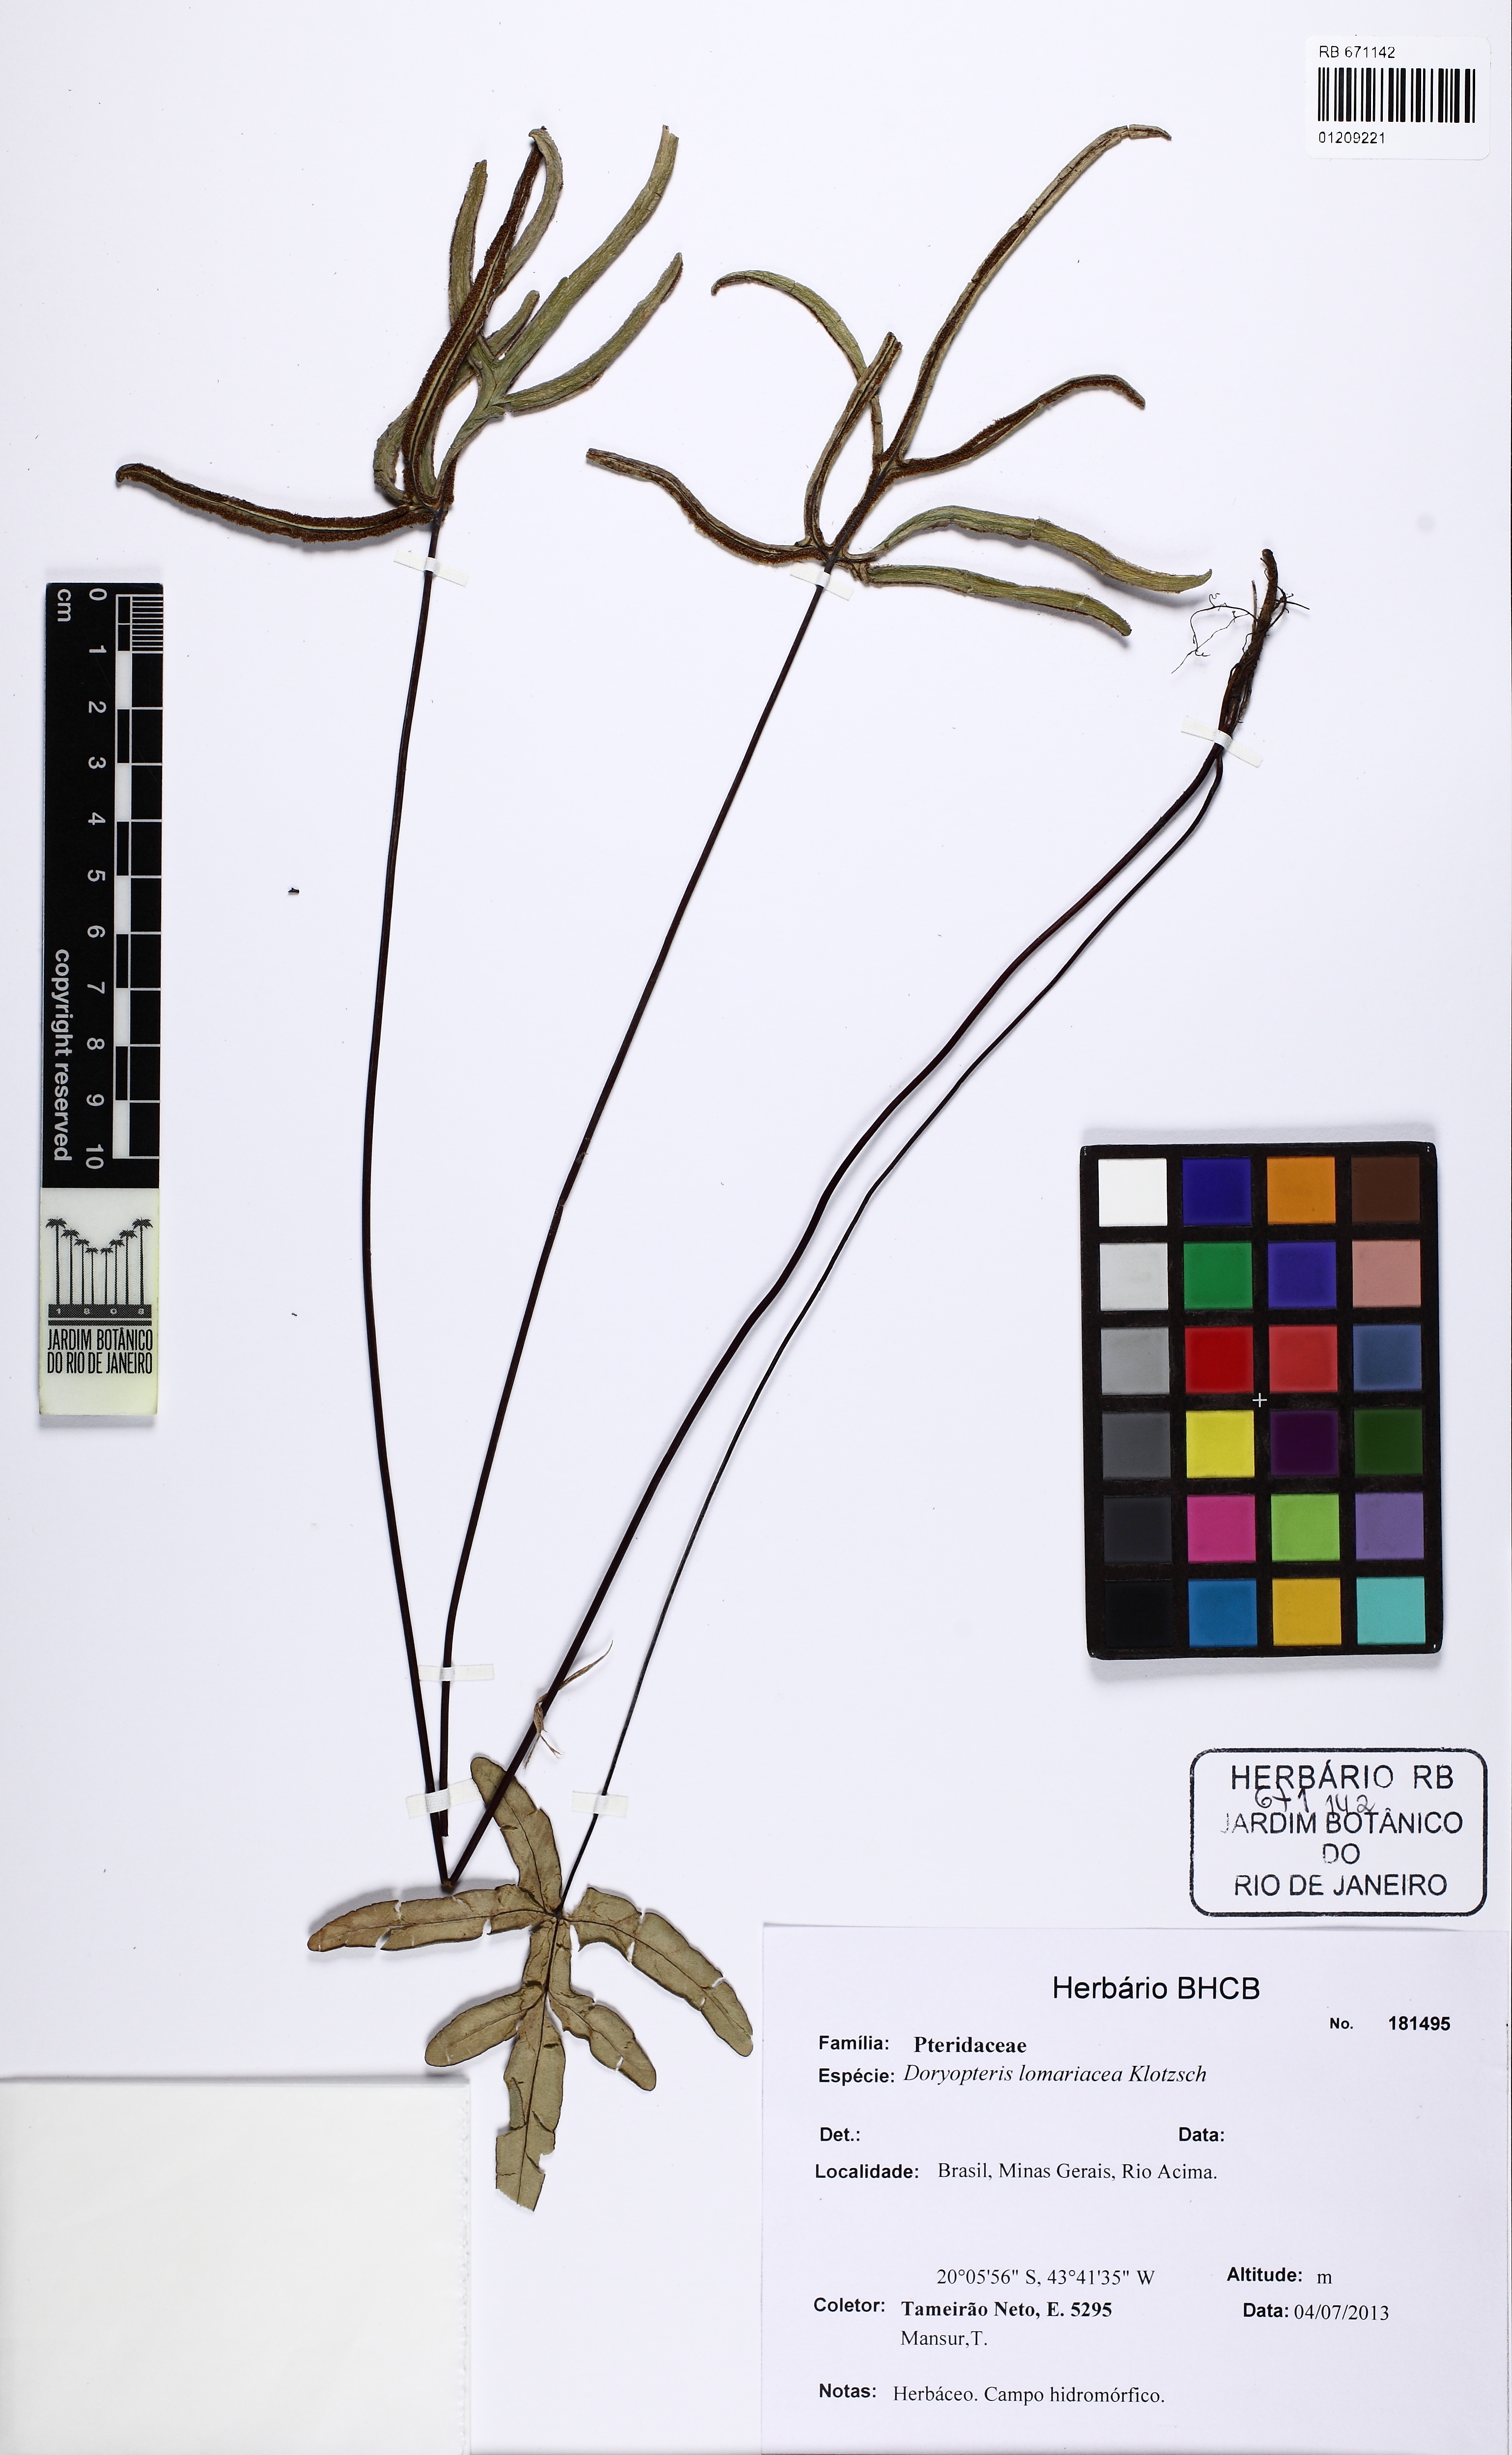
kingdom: Plantae
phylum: Tracheophyta
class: Polypodiopsida
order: Polypodiales
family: Pteridaceae
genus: Lytoneuron
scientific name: Lytoneuron lomariaceum
